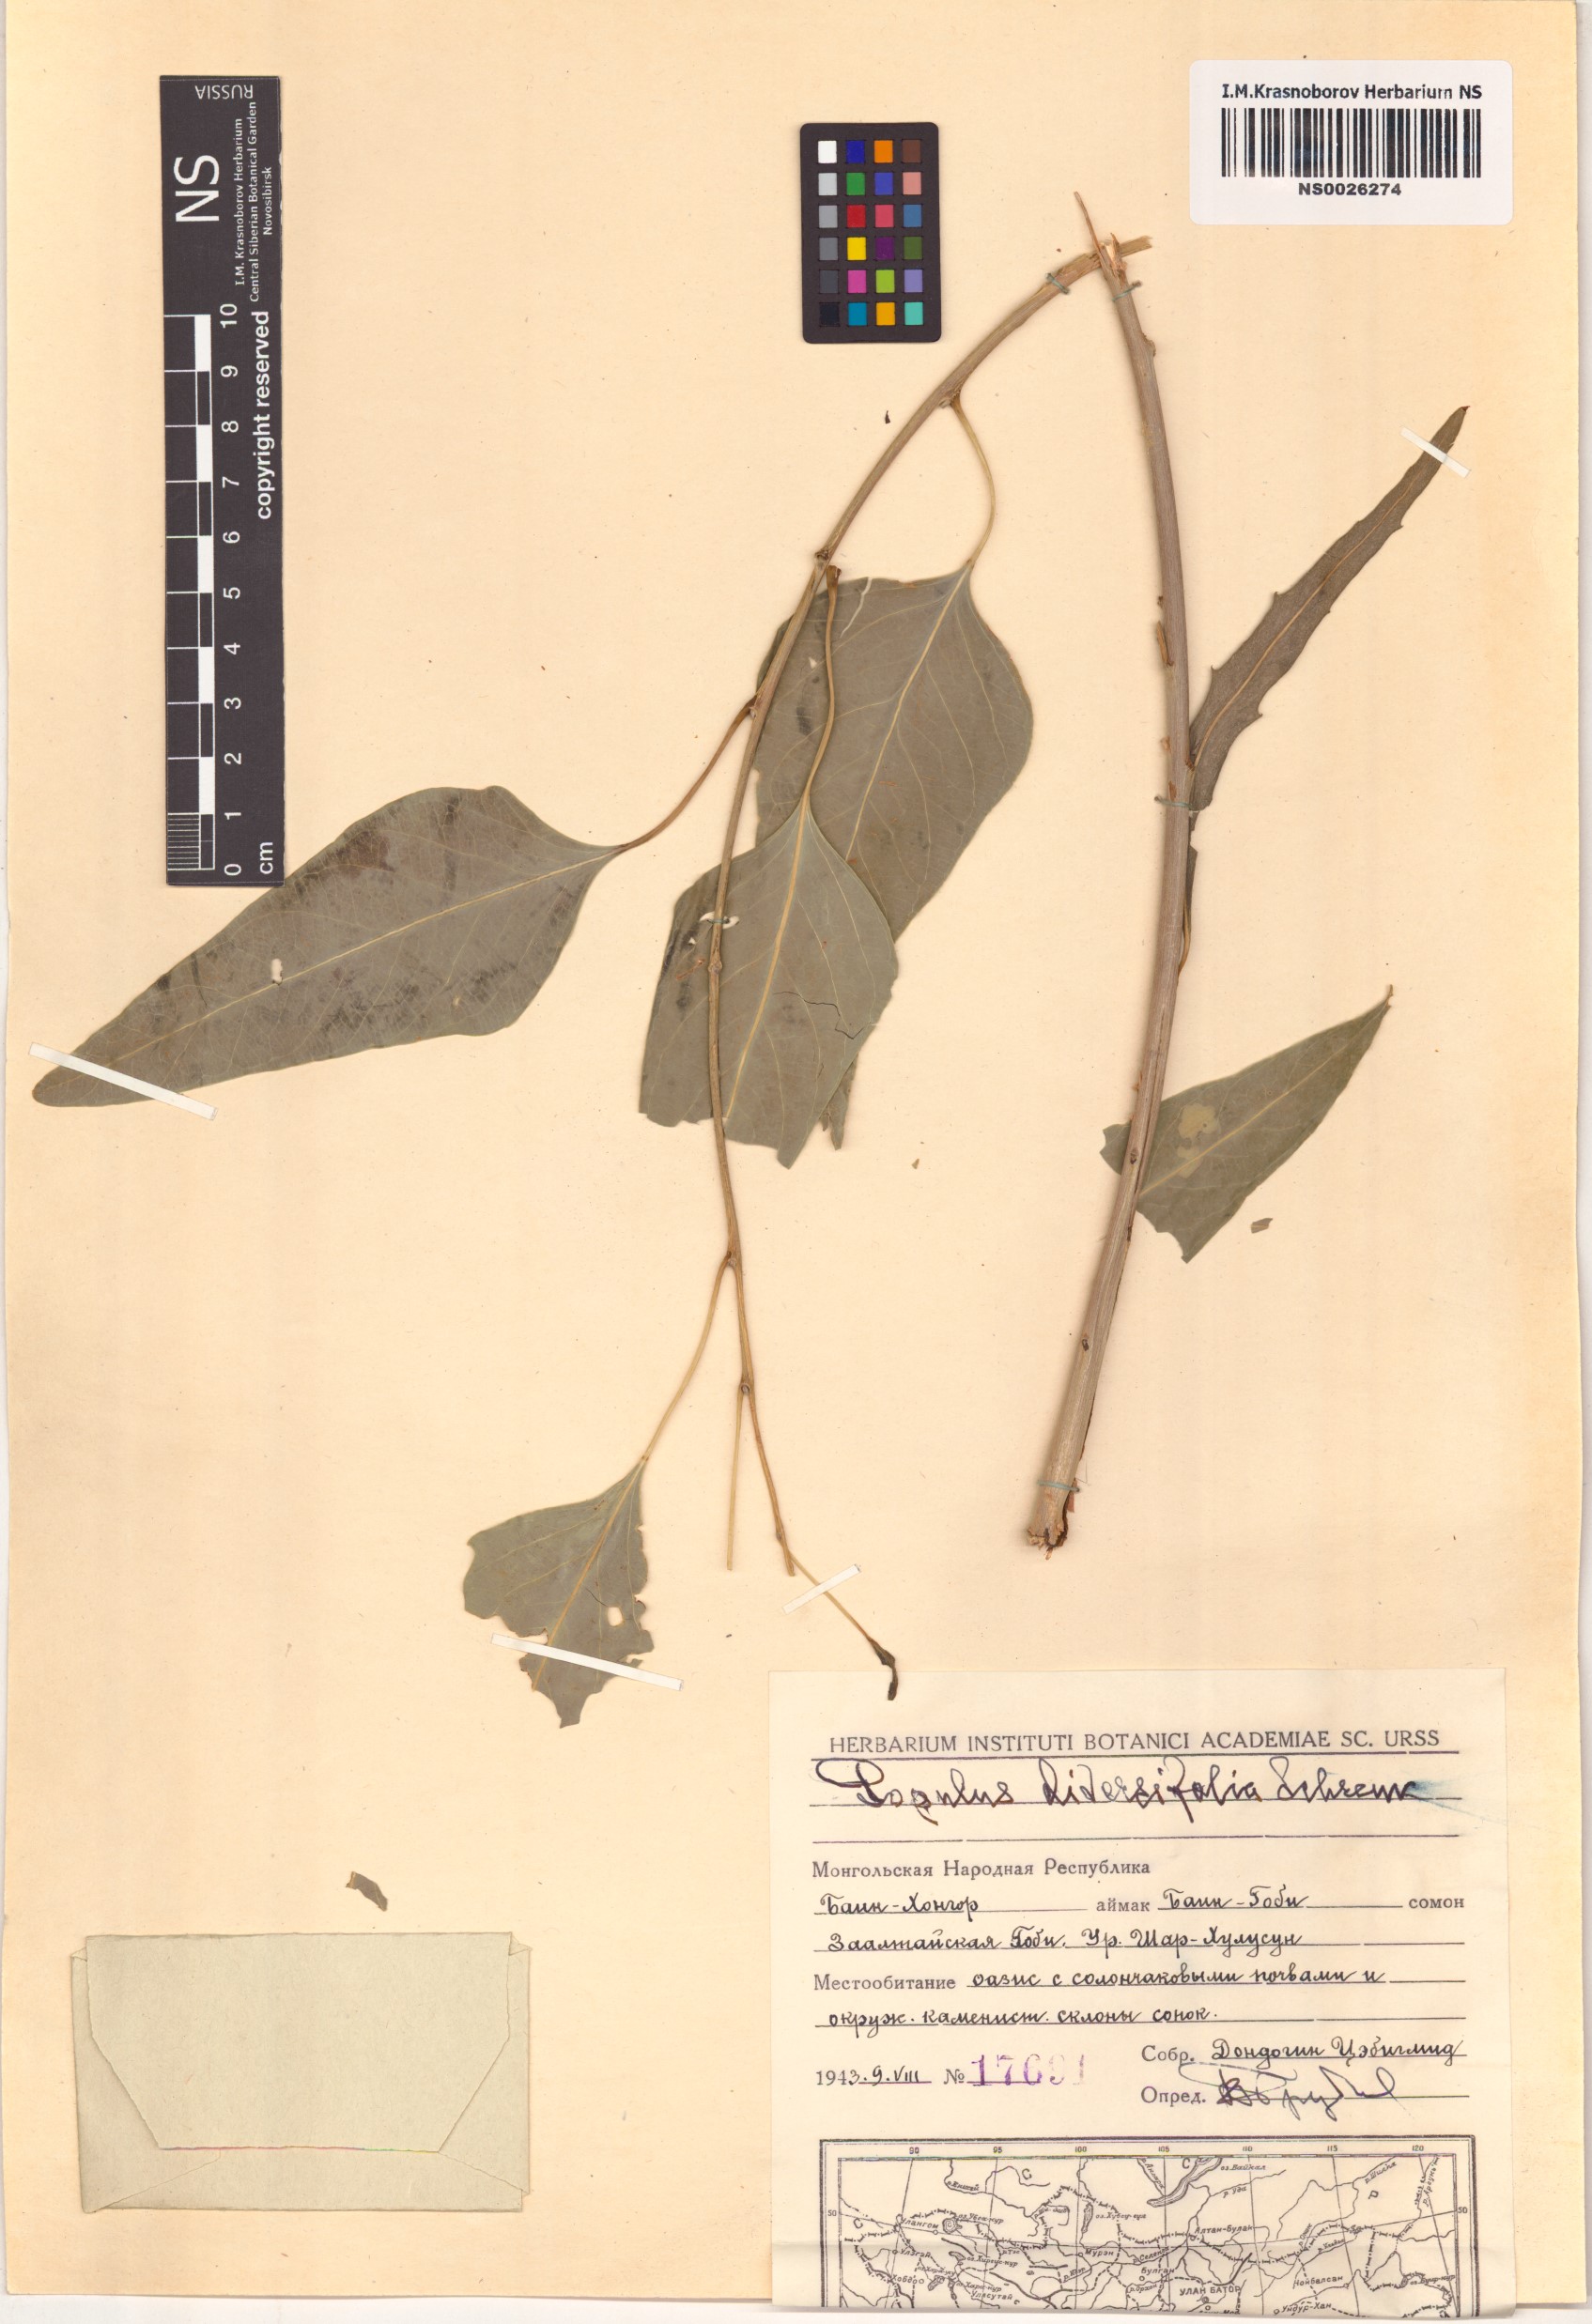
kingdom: Plantae
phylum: Tracheophyta
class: Magnoliopsida
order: Malpighiales
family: Salicaceae
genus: Populus
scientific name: Populus euphratica
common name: Euphrates poplar
